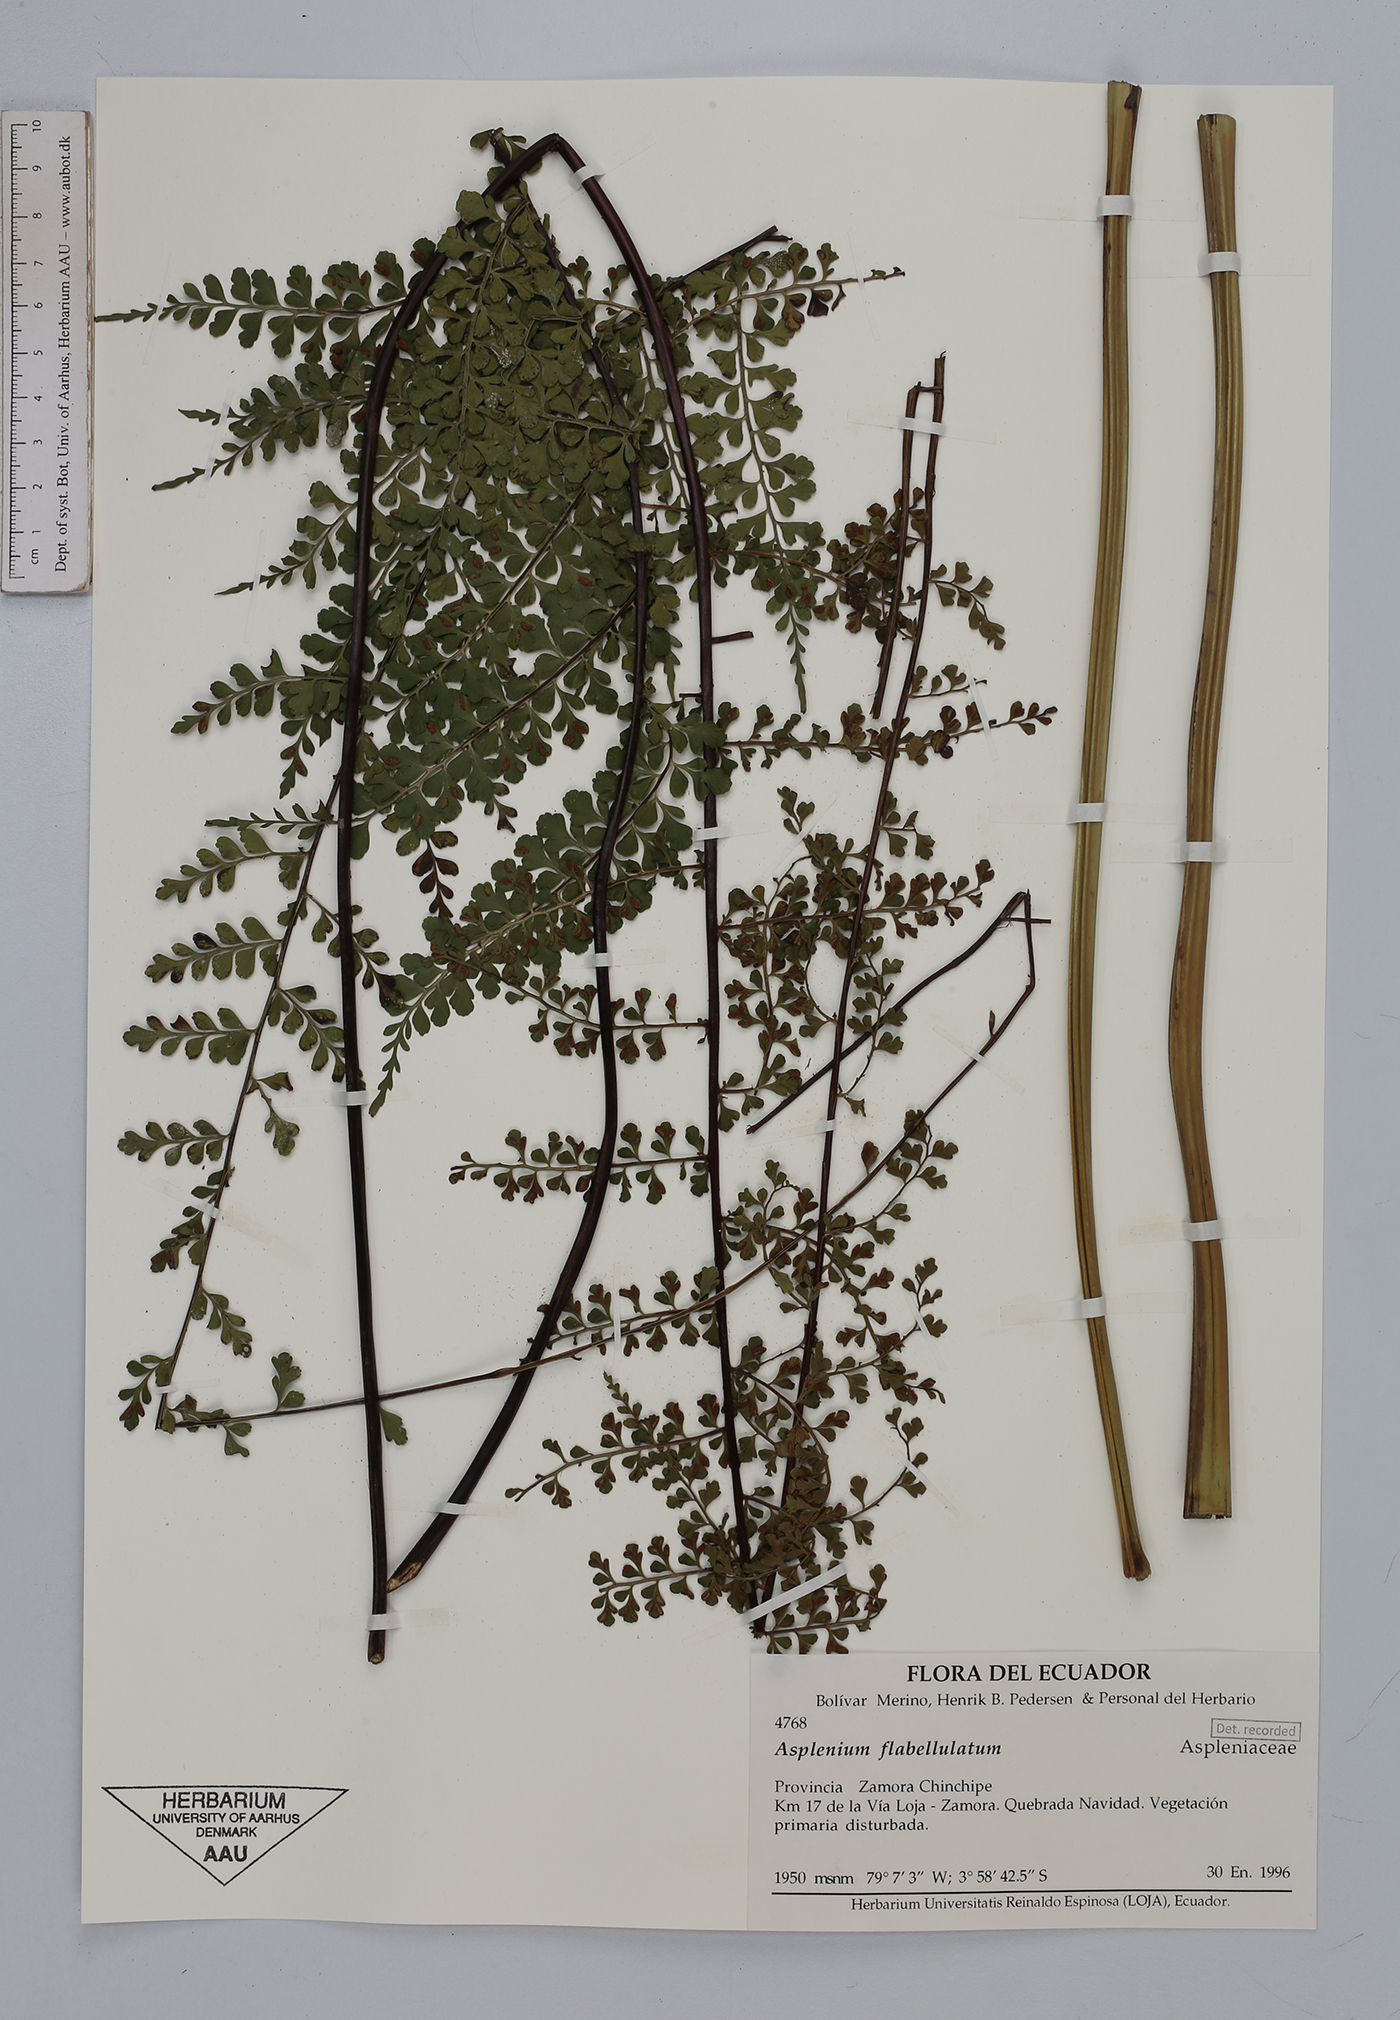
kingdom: Plantae
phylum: Tracheophyta
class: Polypodiopsida
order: Polypodiales
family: Aspleniaceae
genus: Asplenium
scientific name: Asplenium flabellulatum
